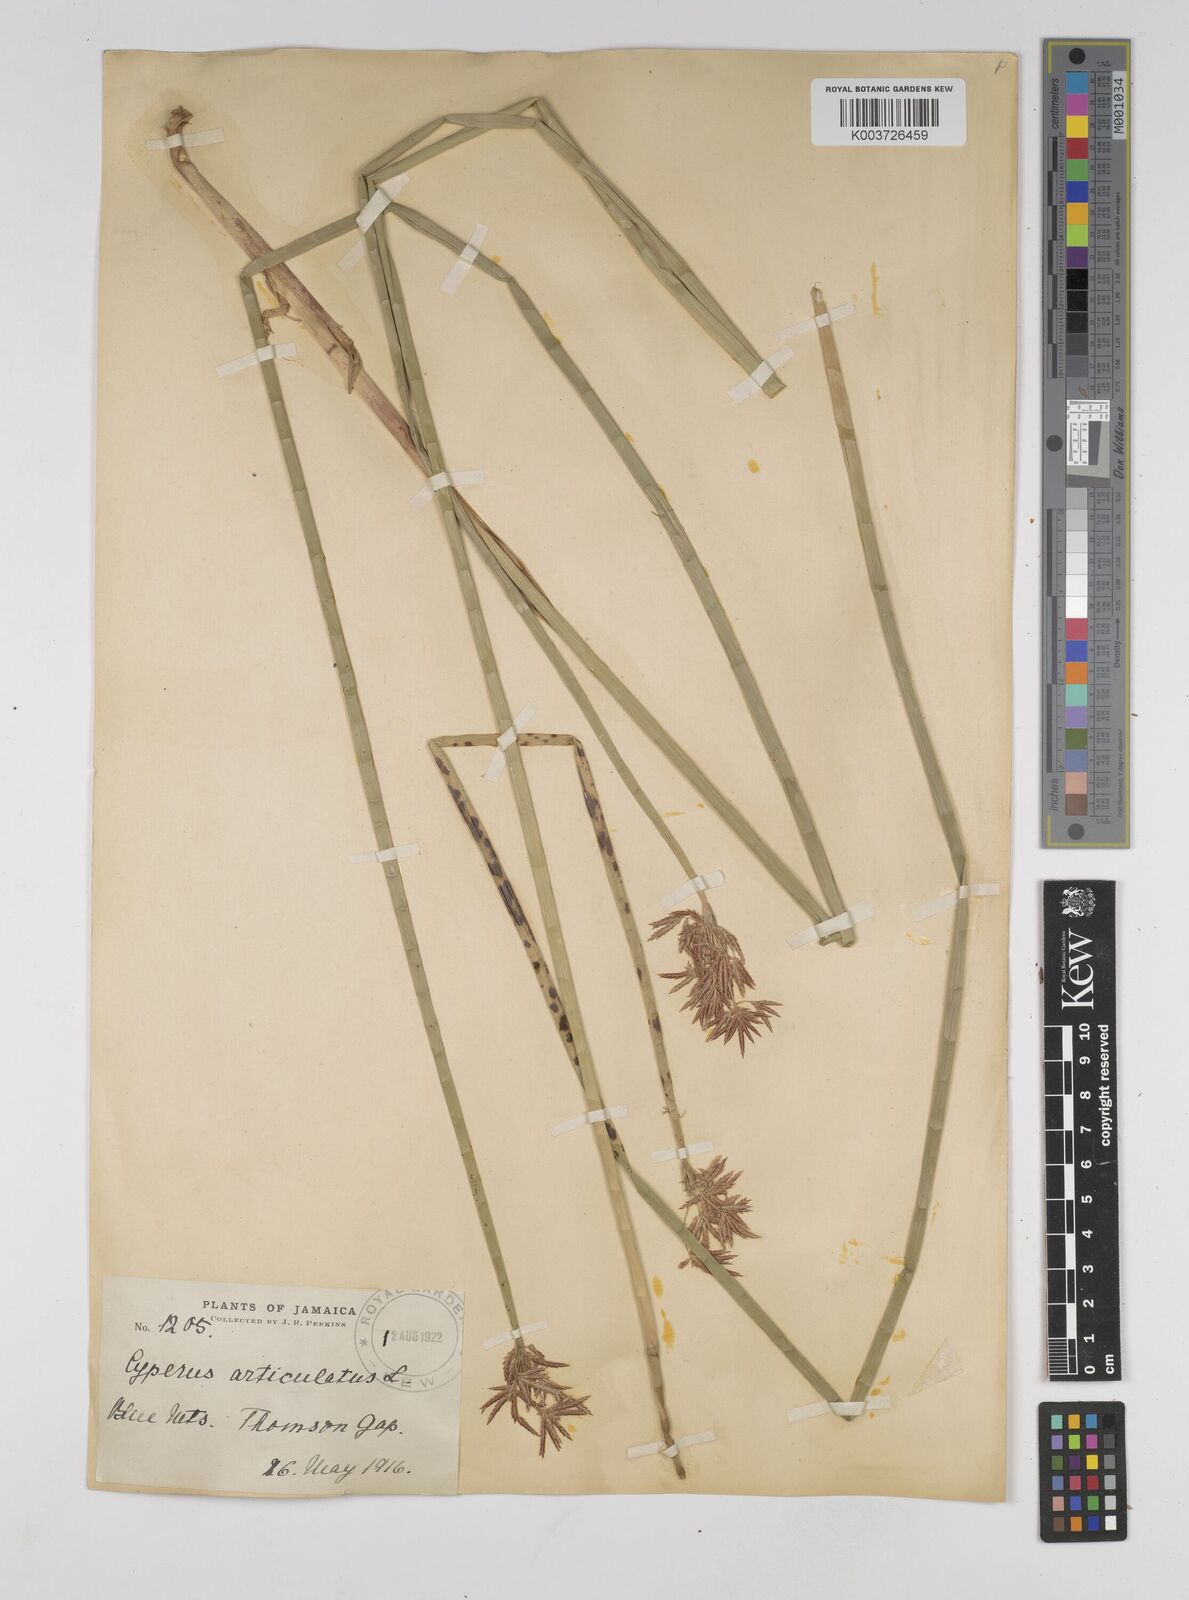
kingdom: Plantae
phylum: Tracheophyta
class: Liliopsida
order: Poales
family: Cyperaceae
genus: Cyperus
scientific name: Cyperus articulatus
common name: Jointed flatsedge
